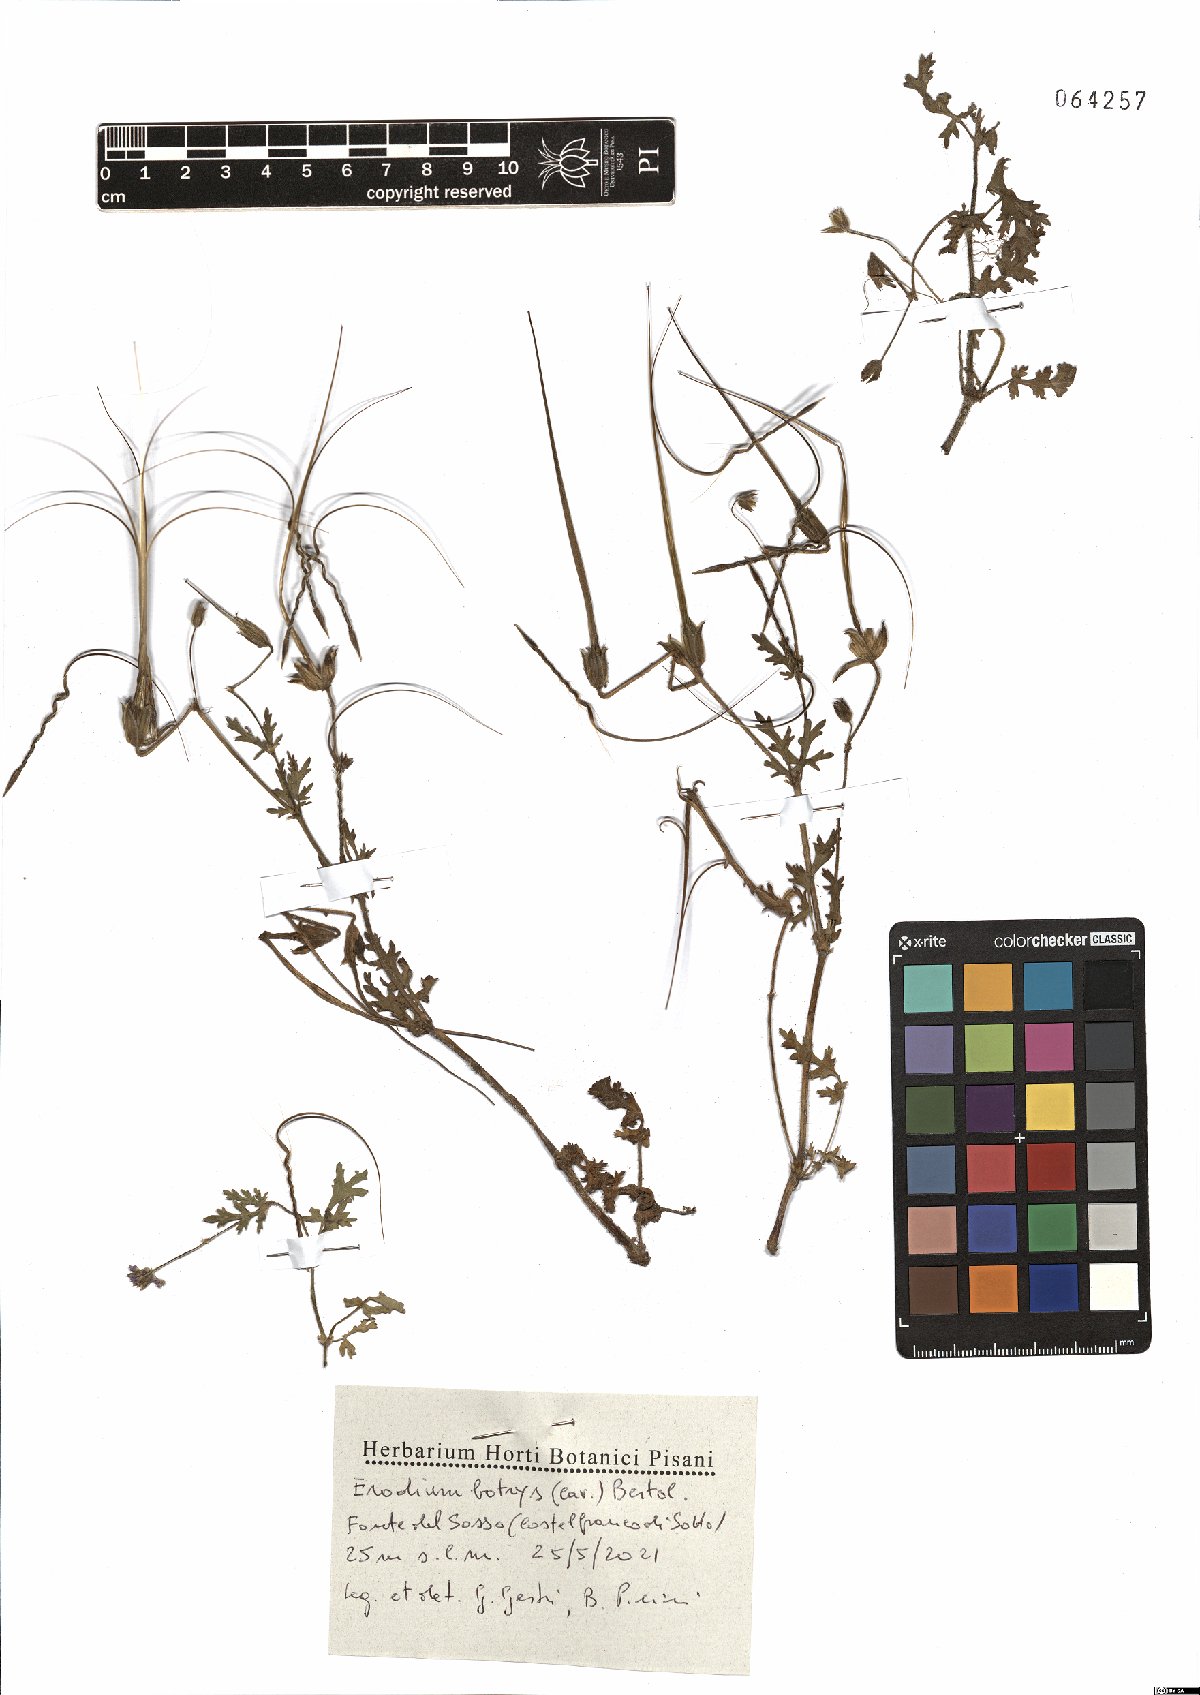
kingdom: Plantae
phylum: Tracheophyta
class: Magnoliopsida
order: Geraniales
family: Geraniaceae
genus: Erodium
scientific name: Erodium botrys
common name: Mediterranean stork's-bill
